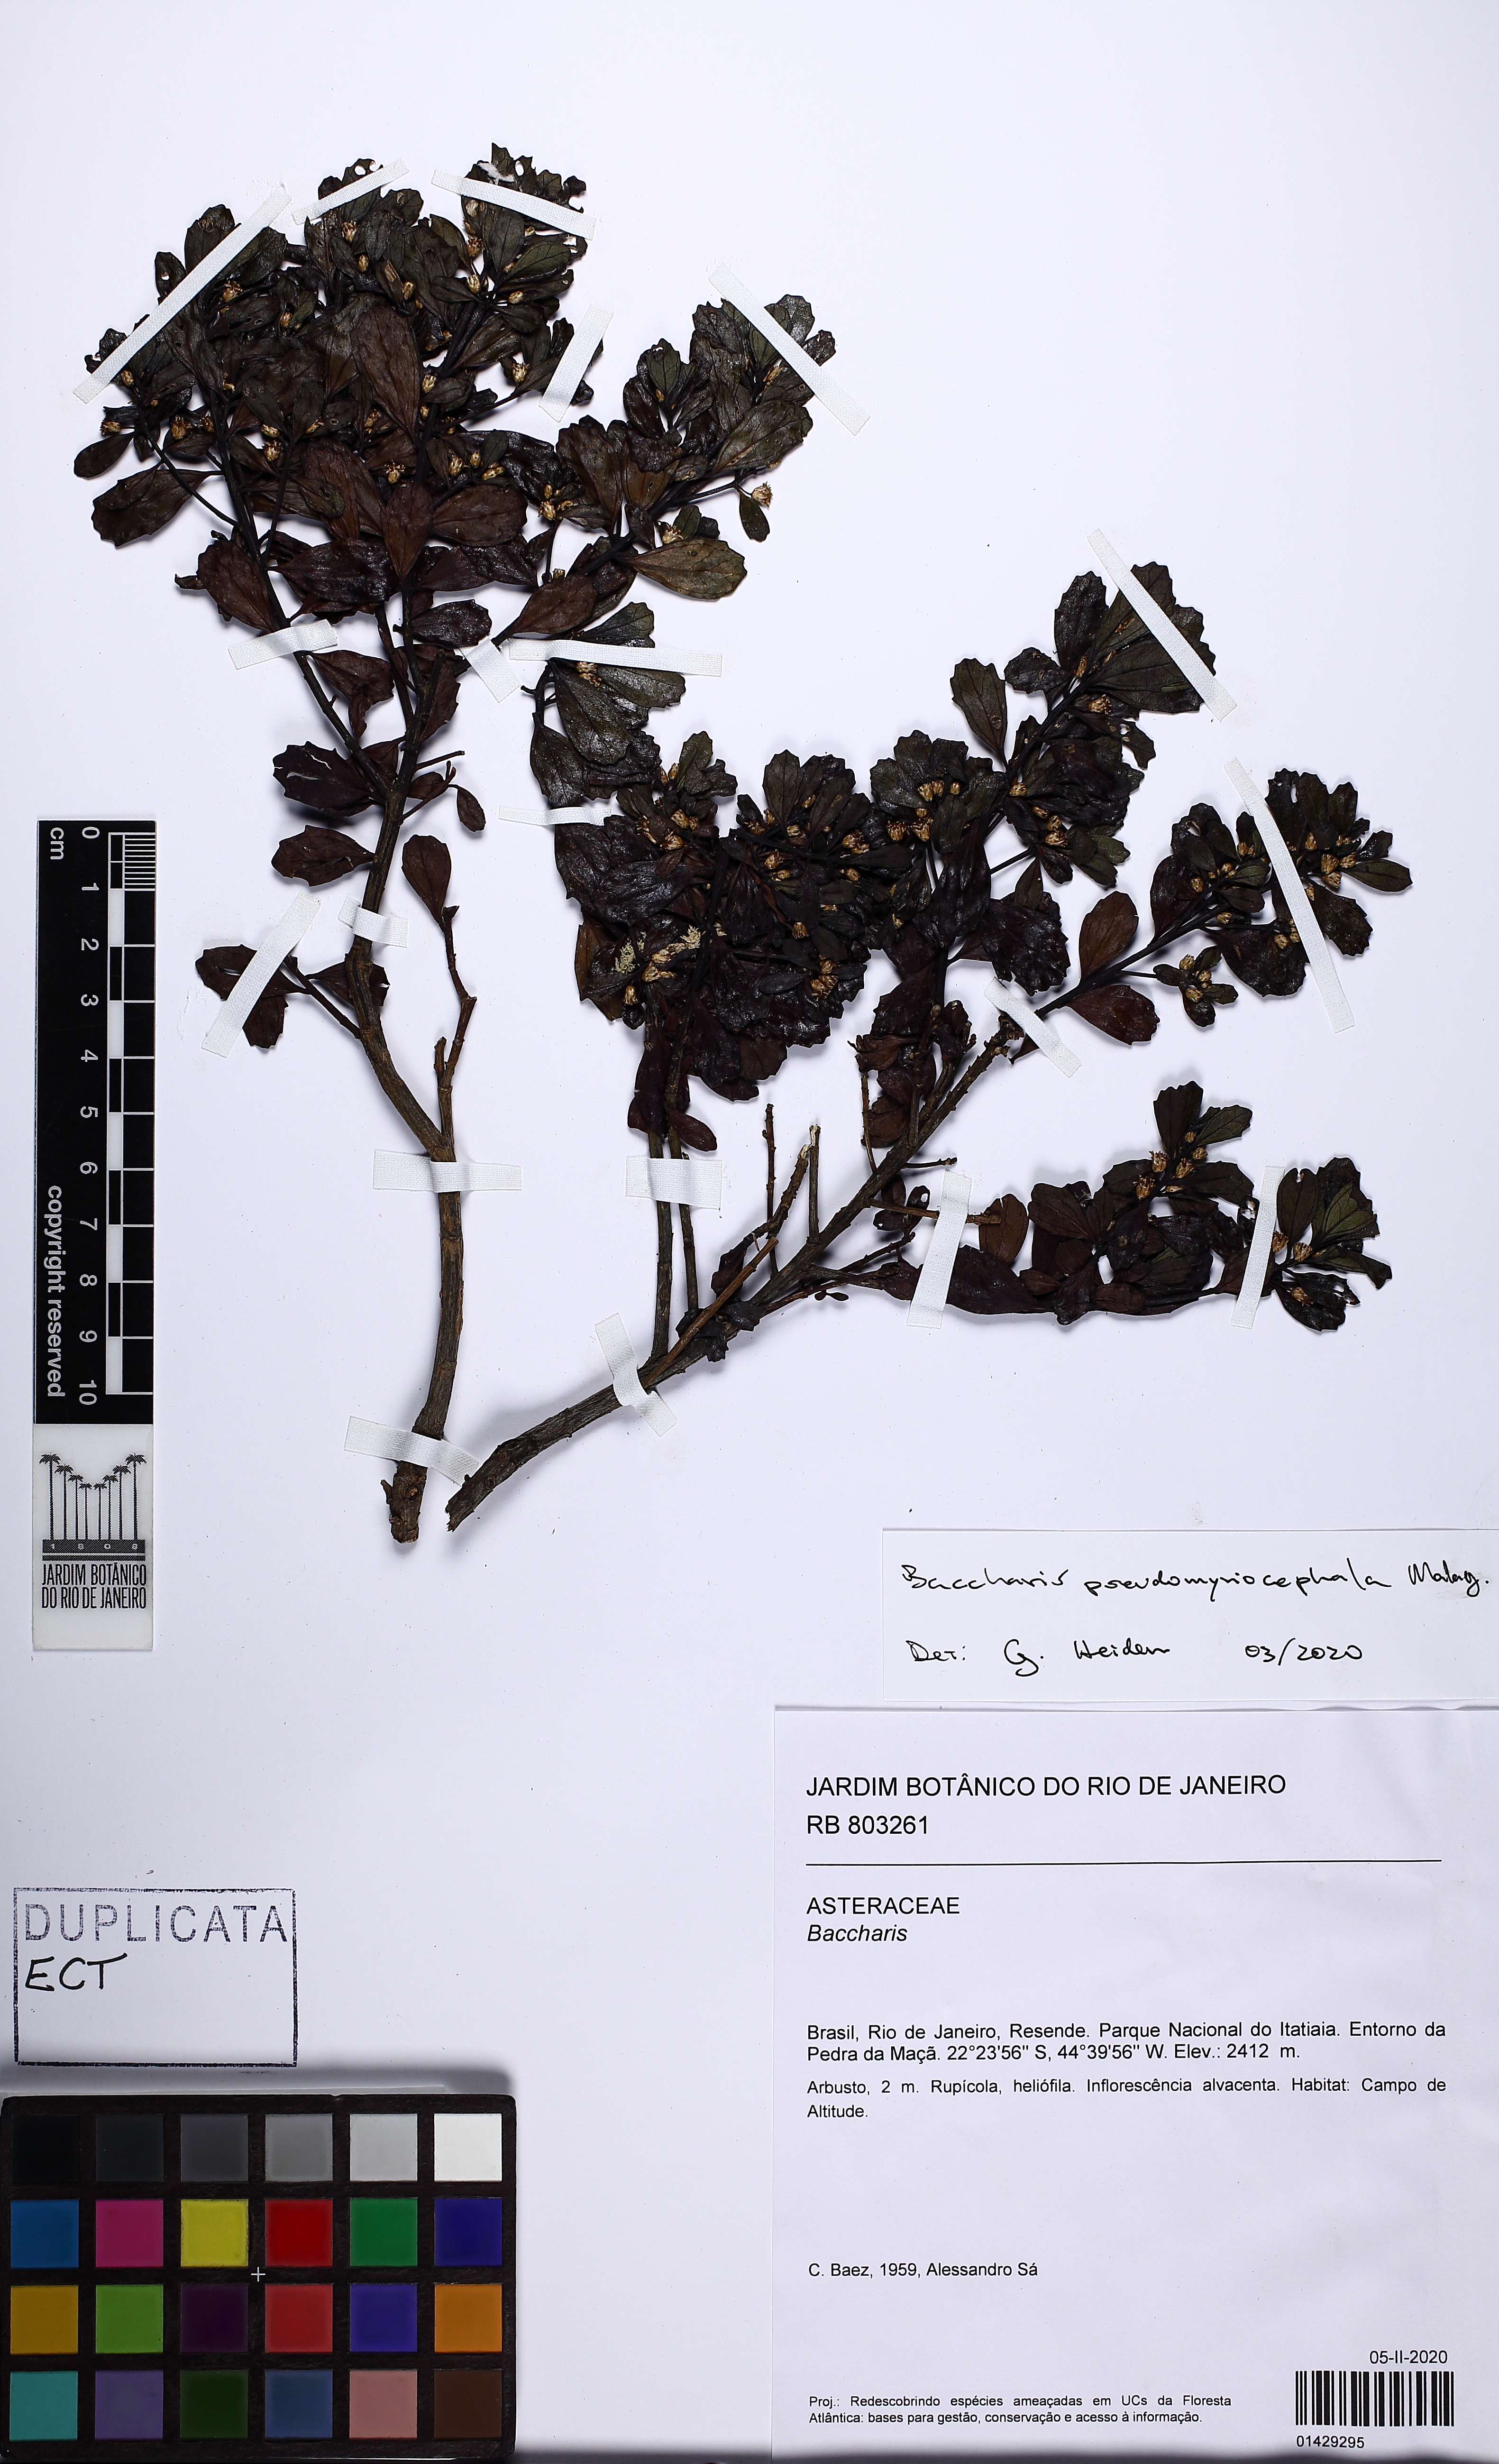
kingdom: Plantae
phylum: Tracheophyta
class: Magnoliopsida
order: Asterales
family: Asteraceae
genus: Baccharis
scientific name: Baccharis pseudomyriocephala
